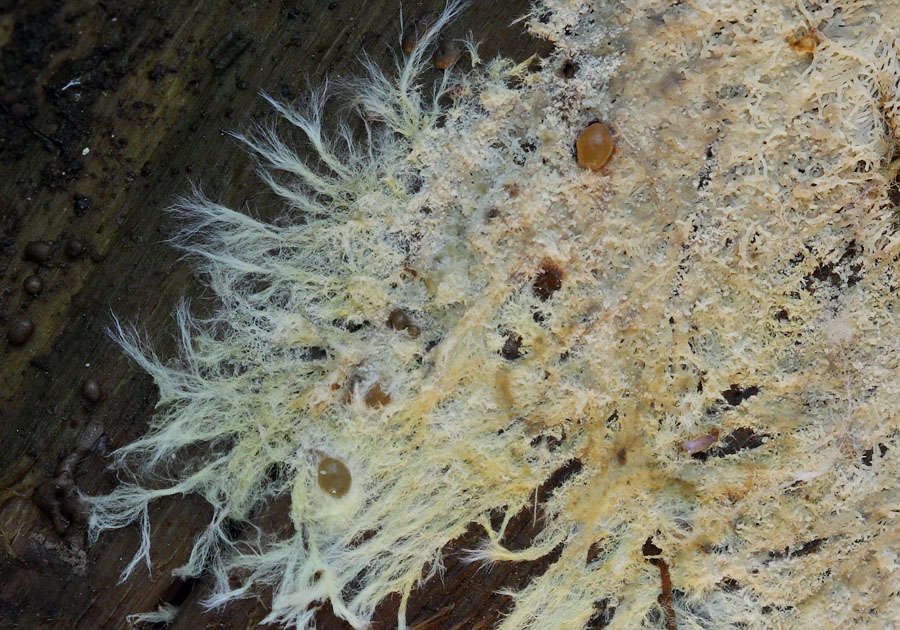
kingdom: Fungi
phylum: Basidiomycota
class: Dacrymycetes
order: Dacrymycetales
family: Dacrymycetaceae
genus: Dacrymyces
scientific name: Dacrymyces
